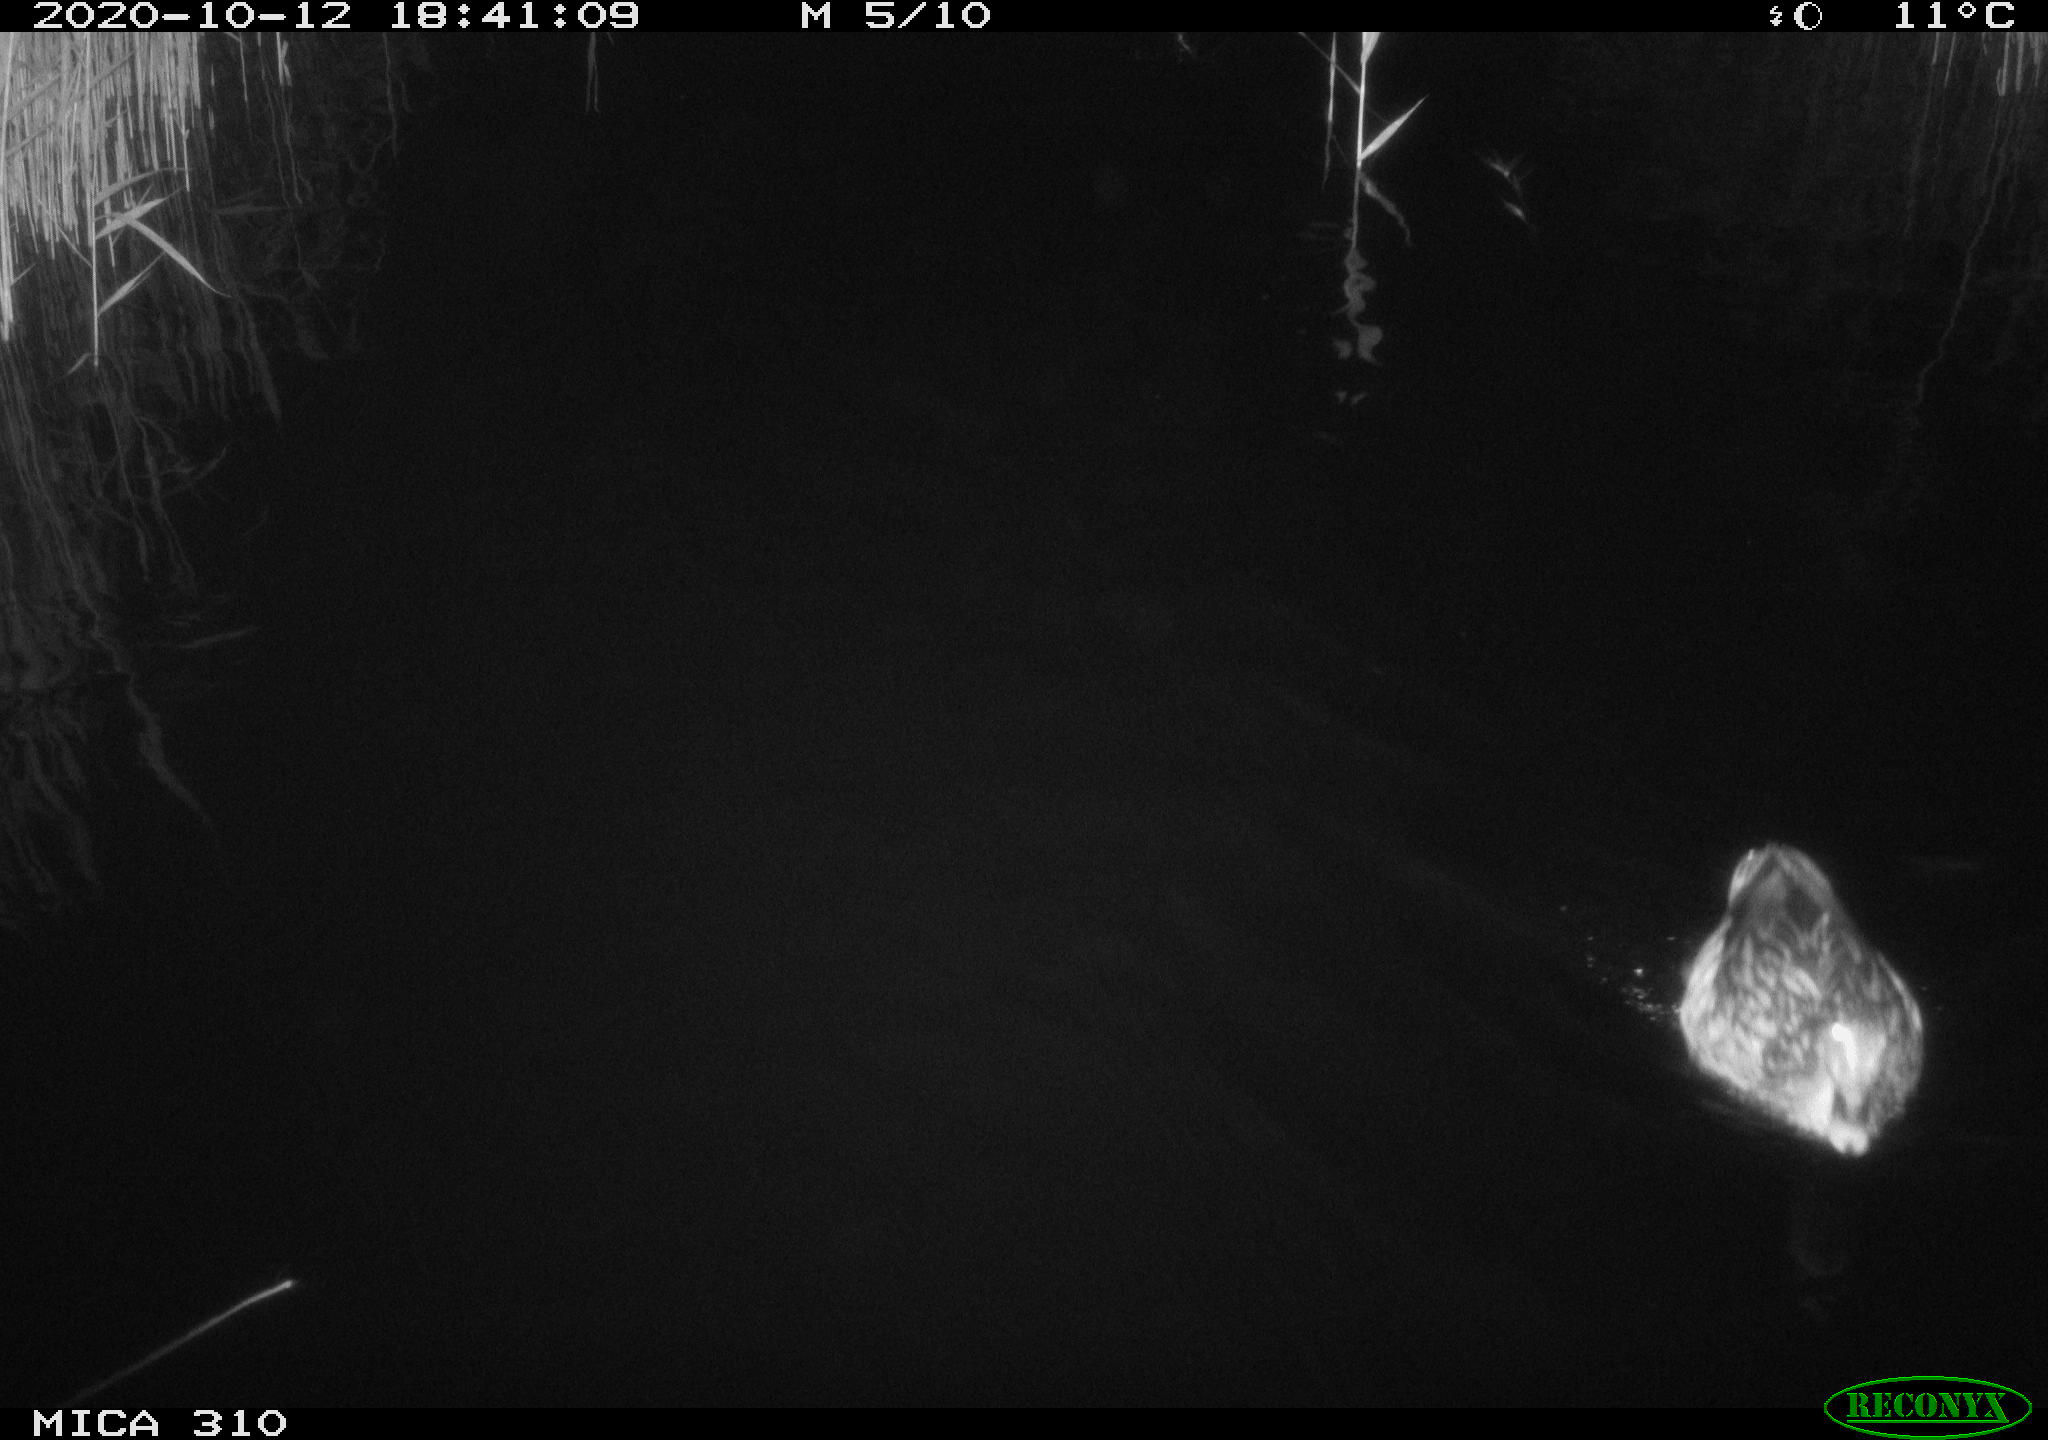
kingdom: Animalia
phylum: Chordata
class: Aves
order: Anseriformes
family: Anatidae
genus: Anas
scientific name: Anas platyrhynchos
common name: Mallard
